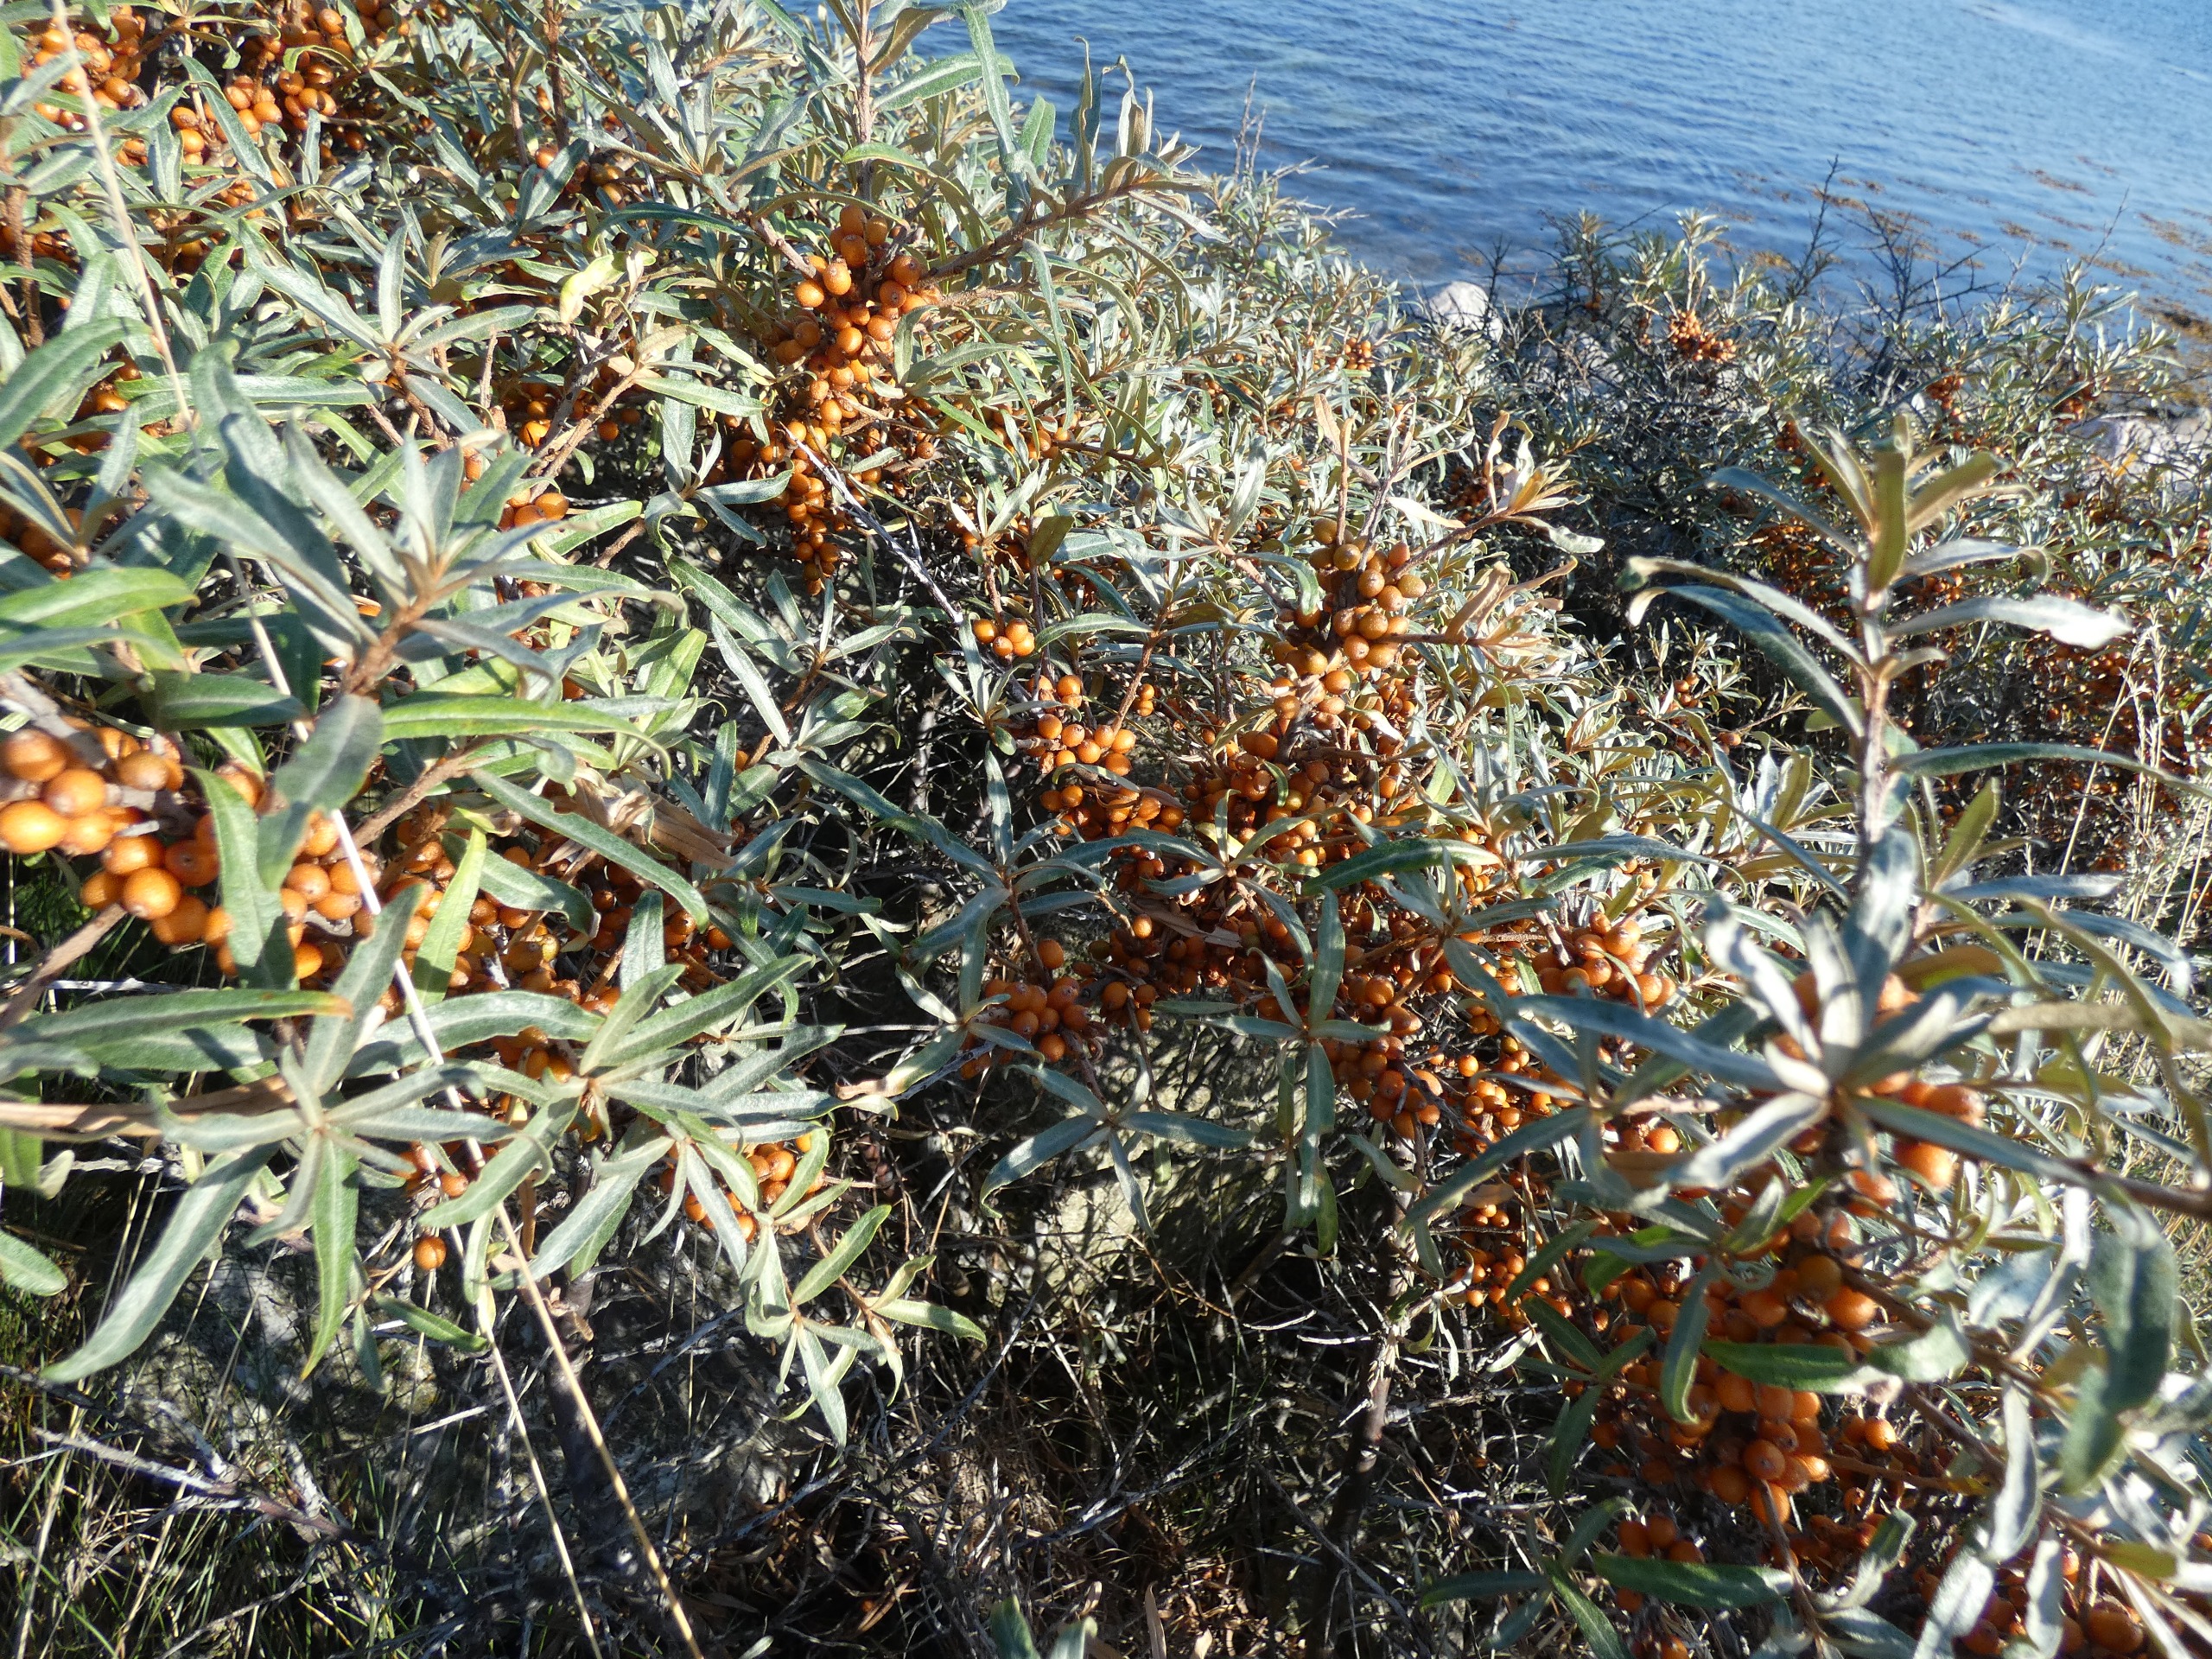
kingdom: Plantae
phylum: Tracheophyta
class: Magnoliopsida
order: Rosales
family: Elaeagnaceae
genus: Hippophae
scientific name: Hippophae rhamnoides
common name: Havtorn
